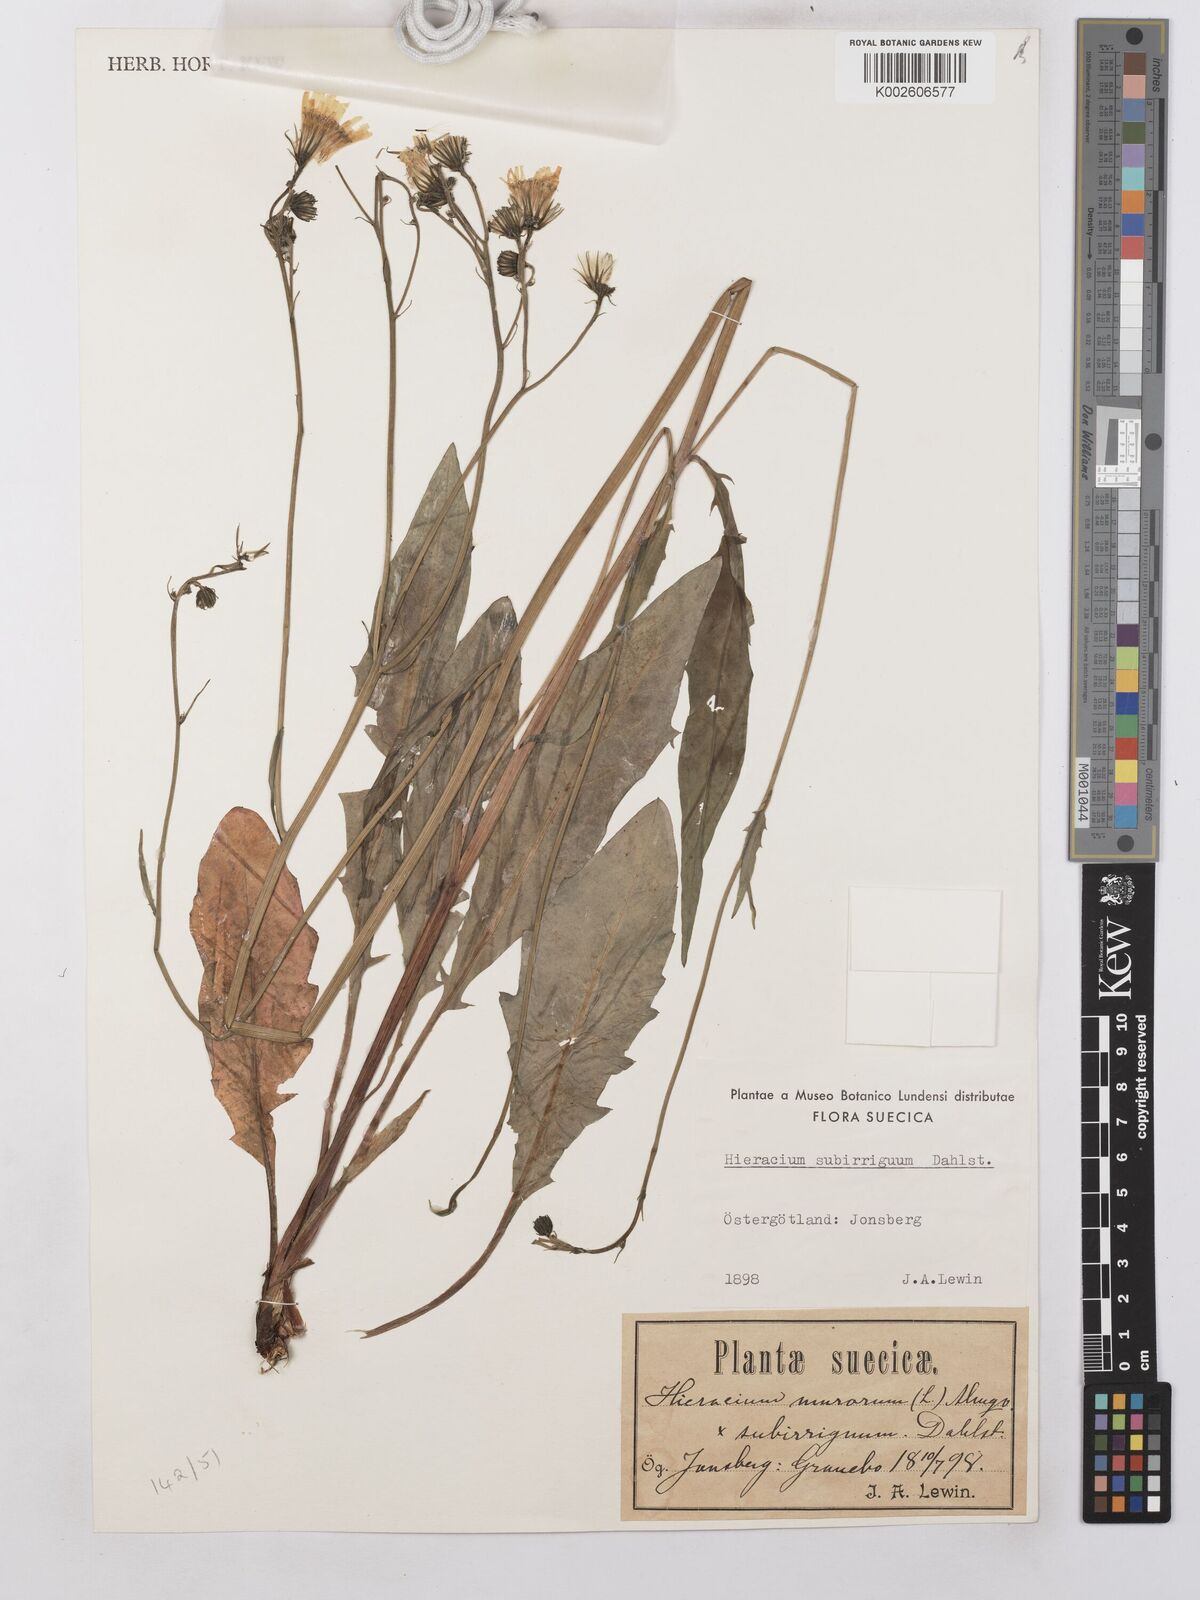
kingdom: Plantae
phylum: Tracheophyta
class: Magnoliopsida
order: Asterales
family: Asteraceae
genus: Hieracium
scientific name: Hieracium lachenalii
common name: Common hawkweed
